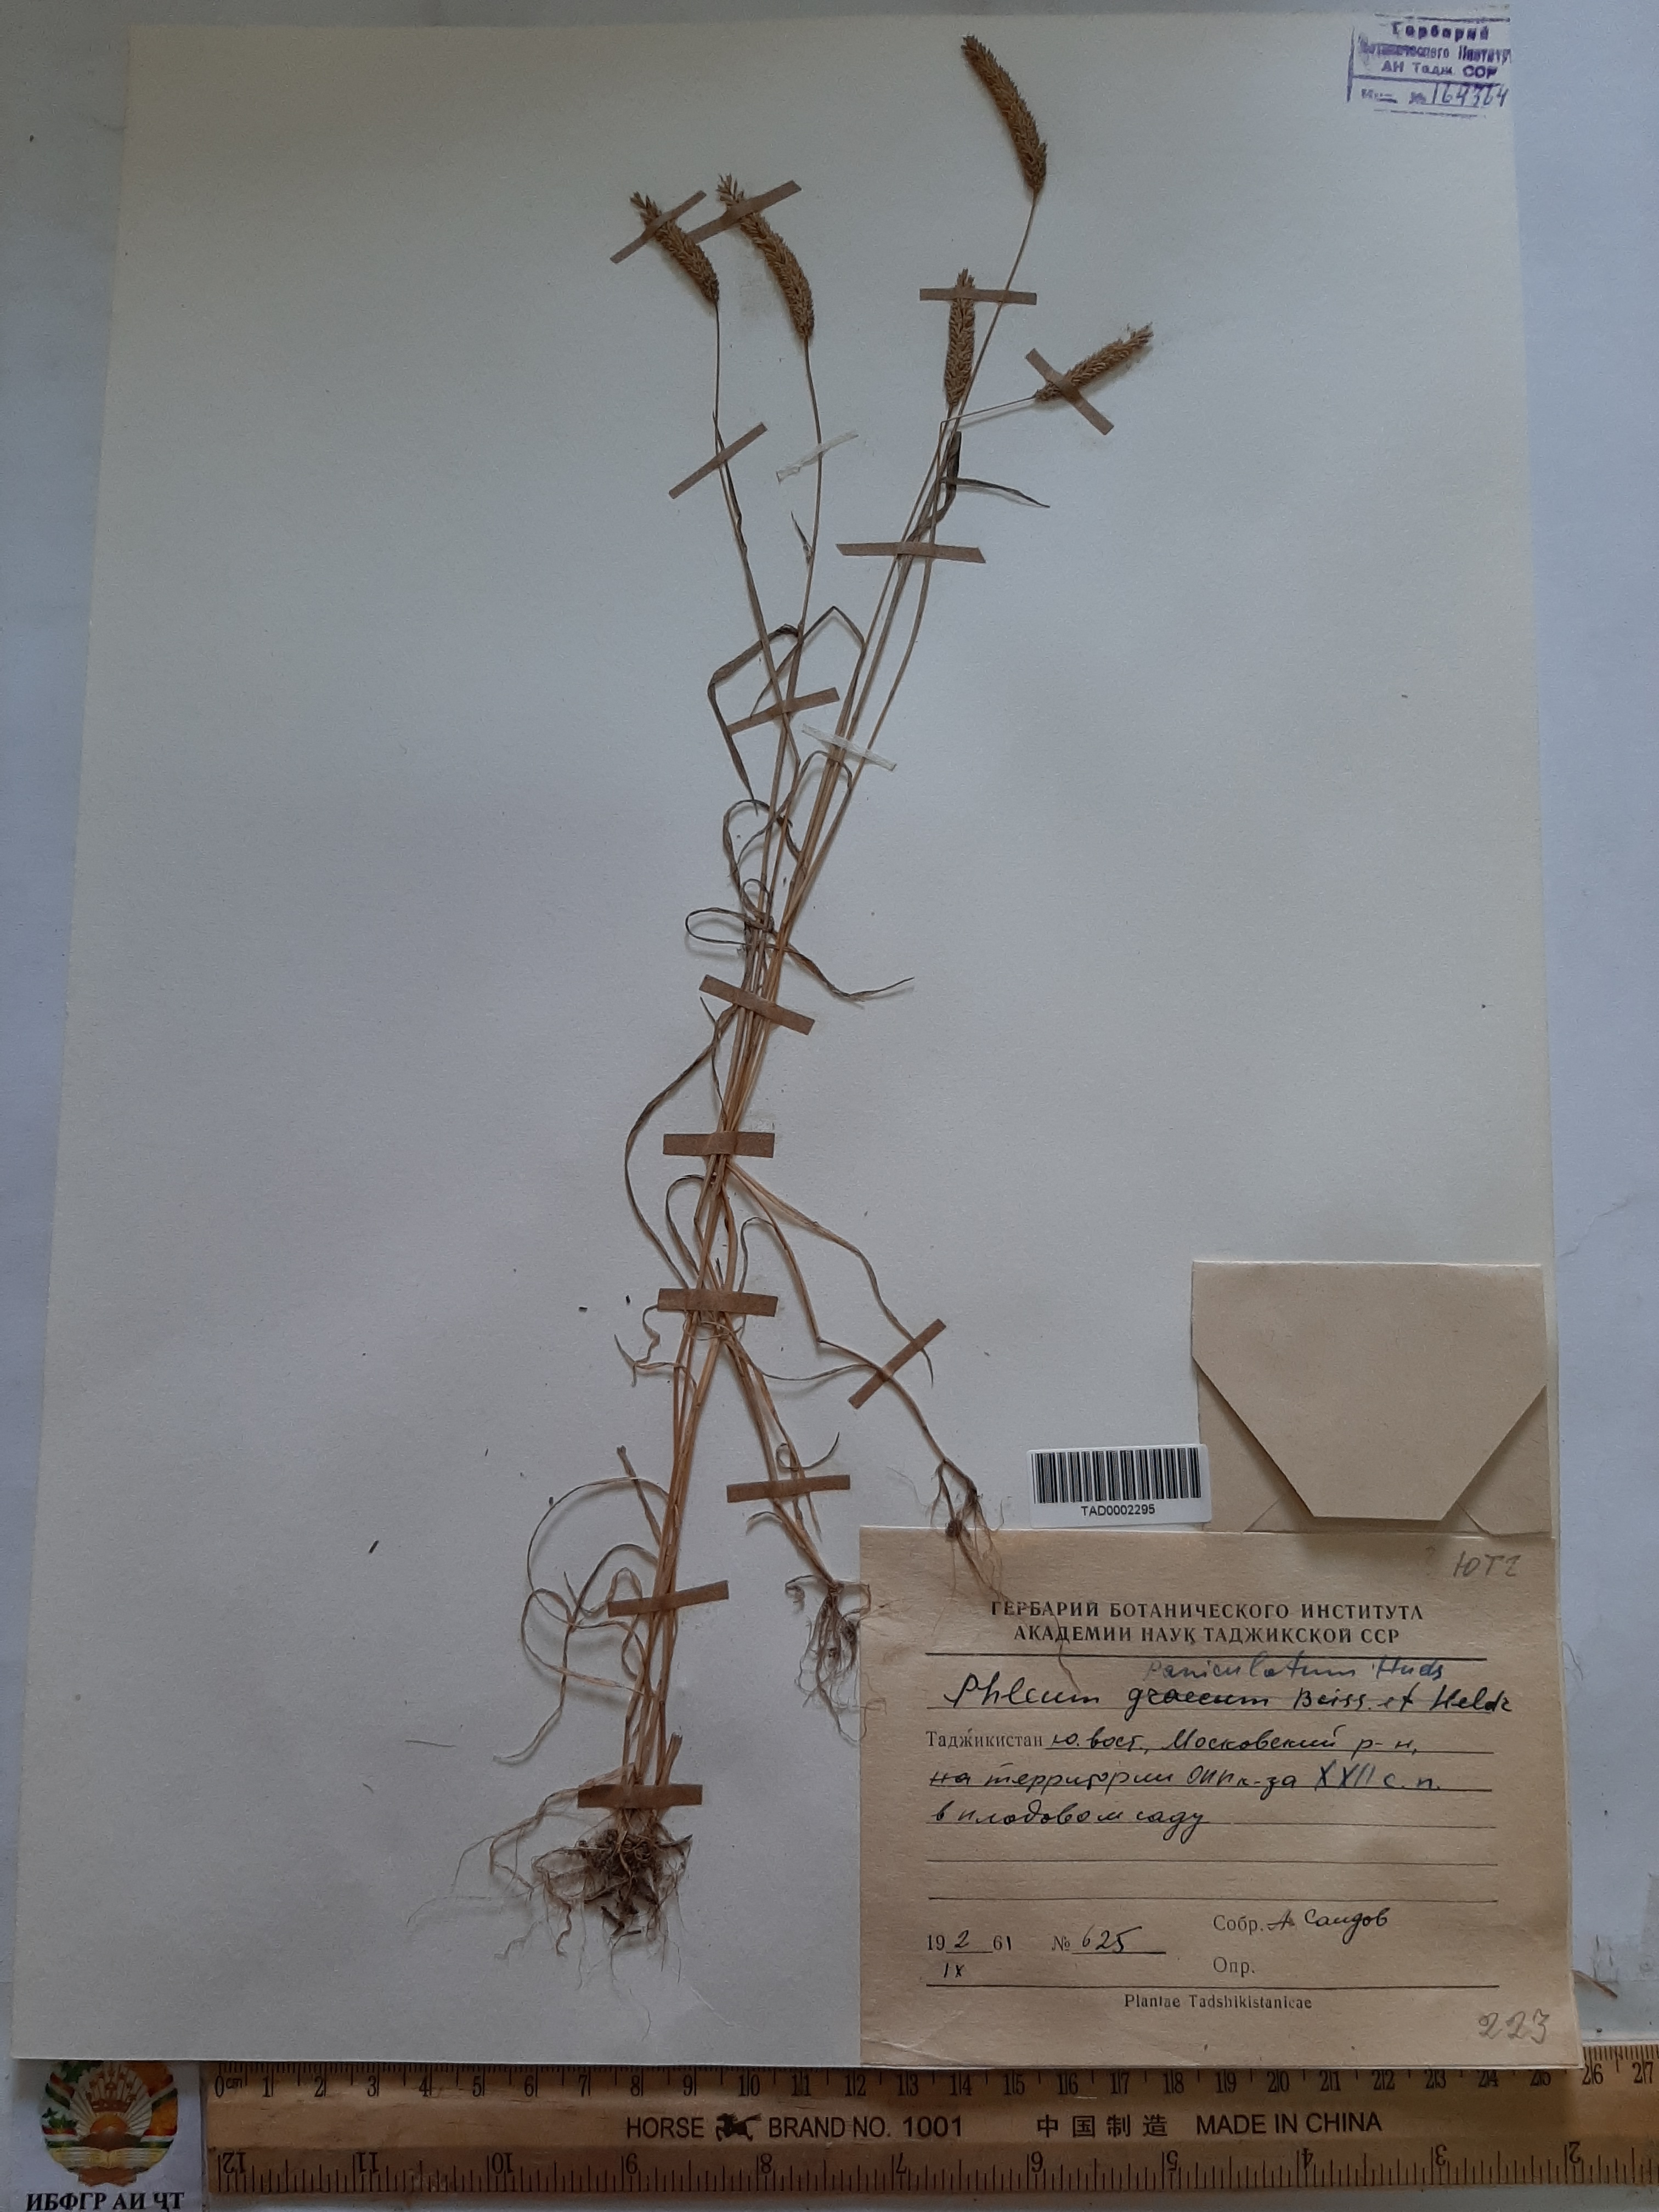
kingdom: Plantae
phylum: Tracheophyta
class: Liliopsida
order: Poales
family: Poaceae
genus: Phleum
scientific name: Phleum paniculatum
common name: British timothy
